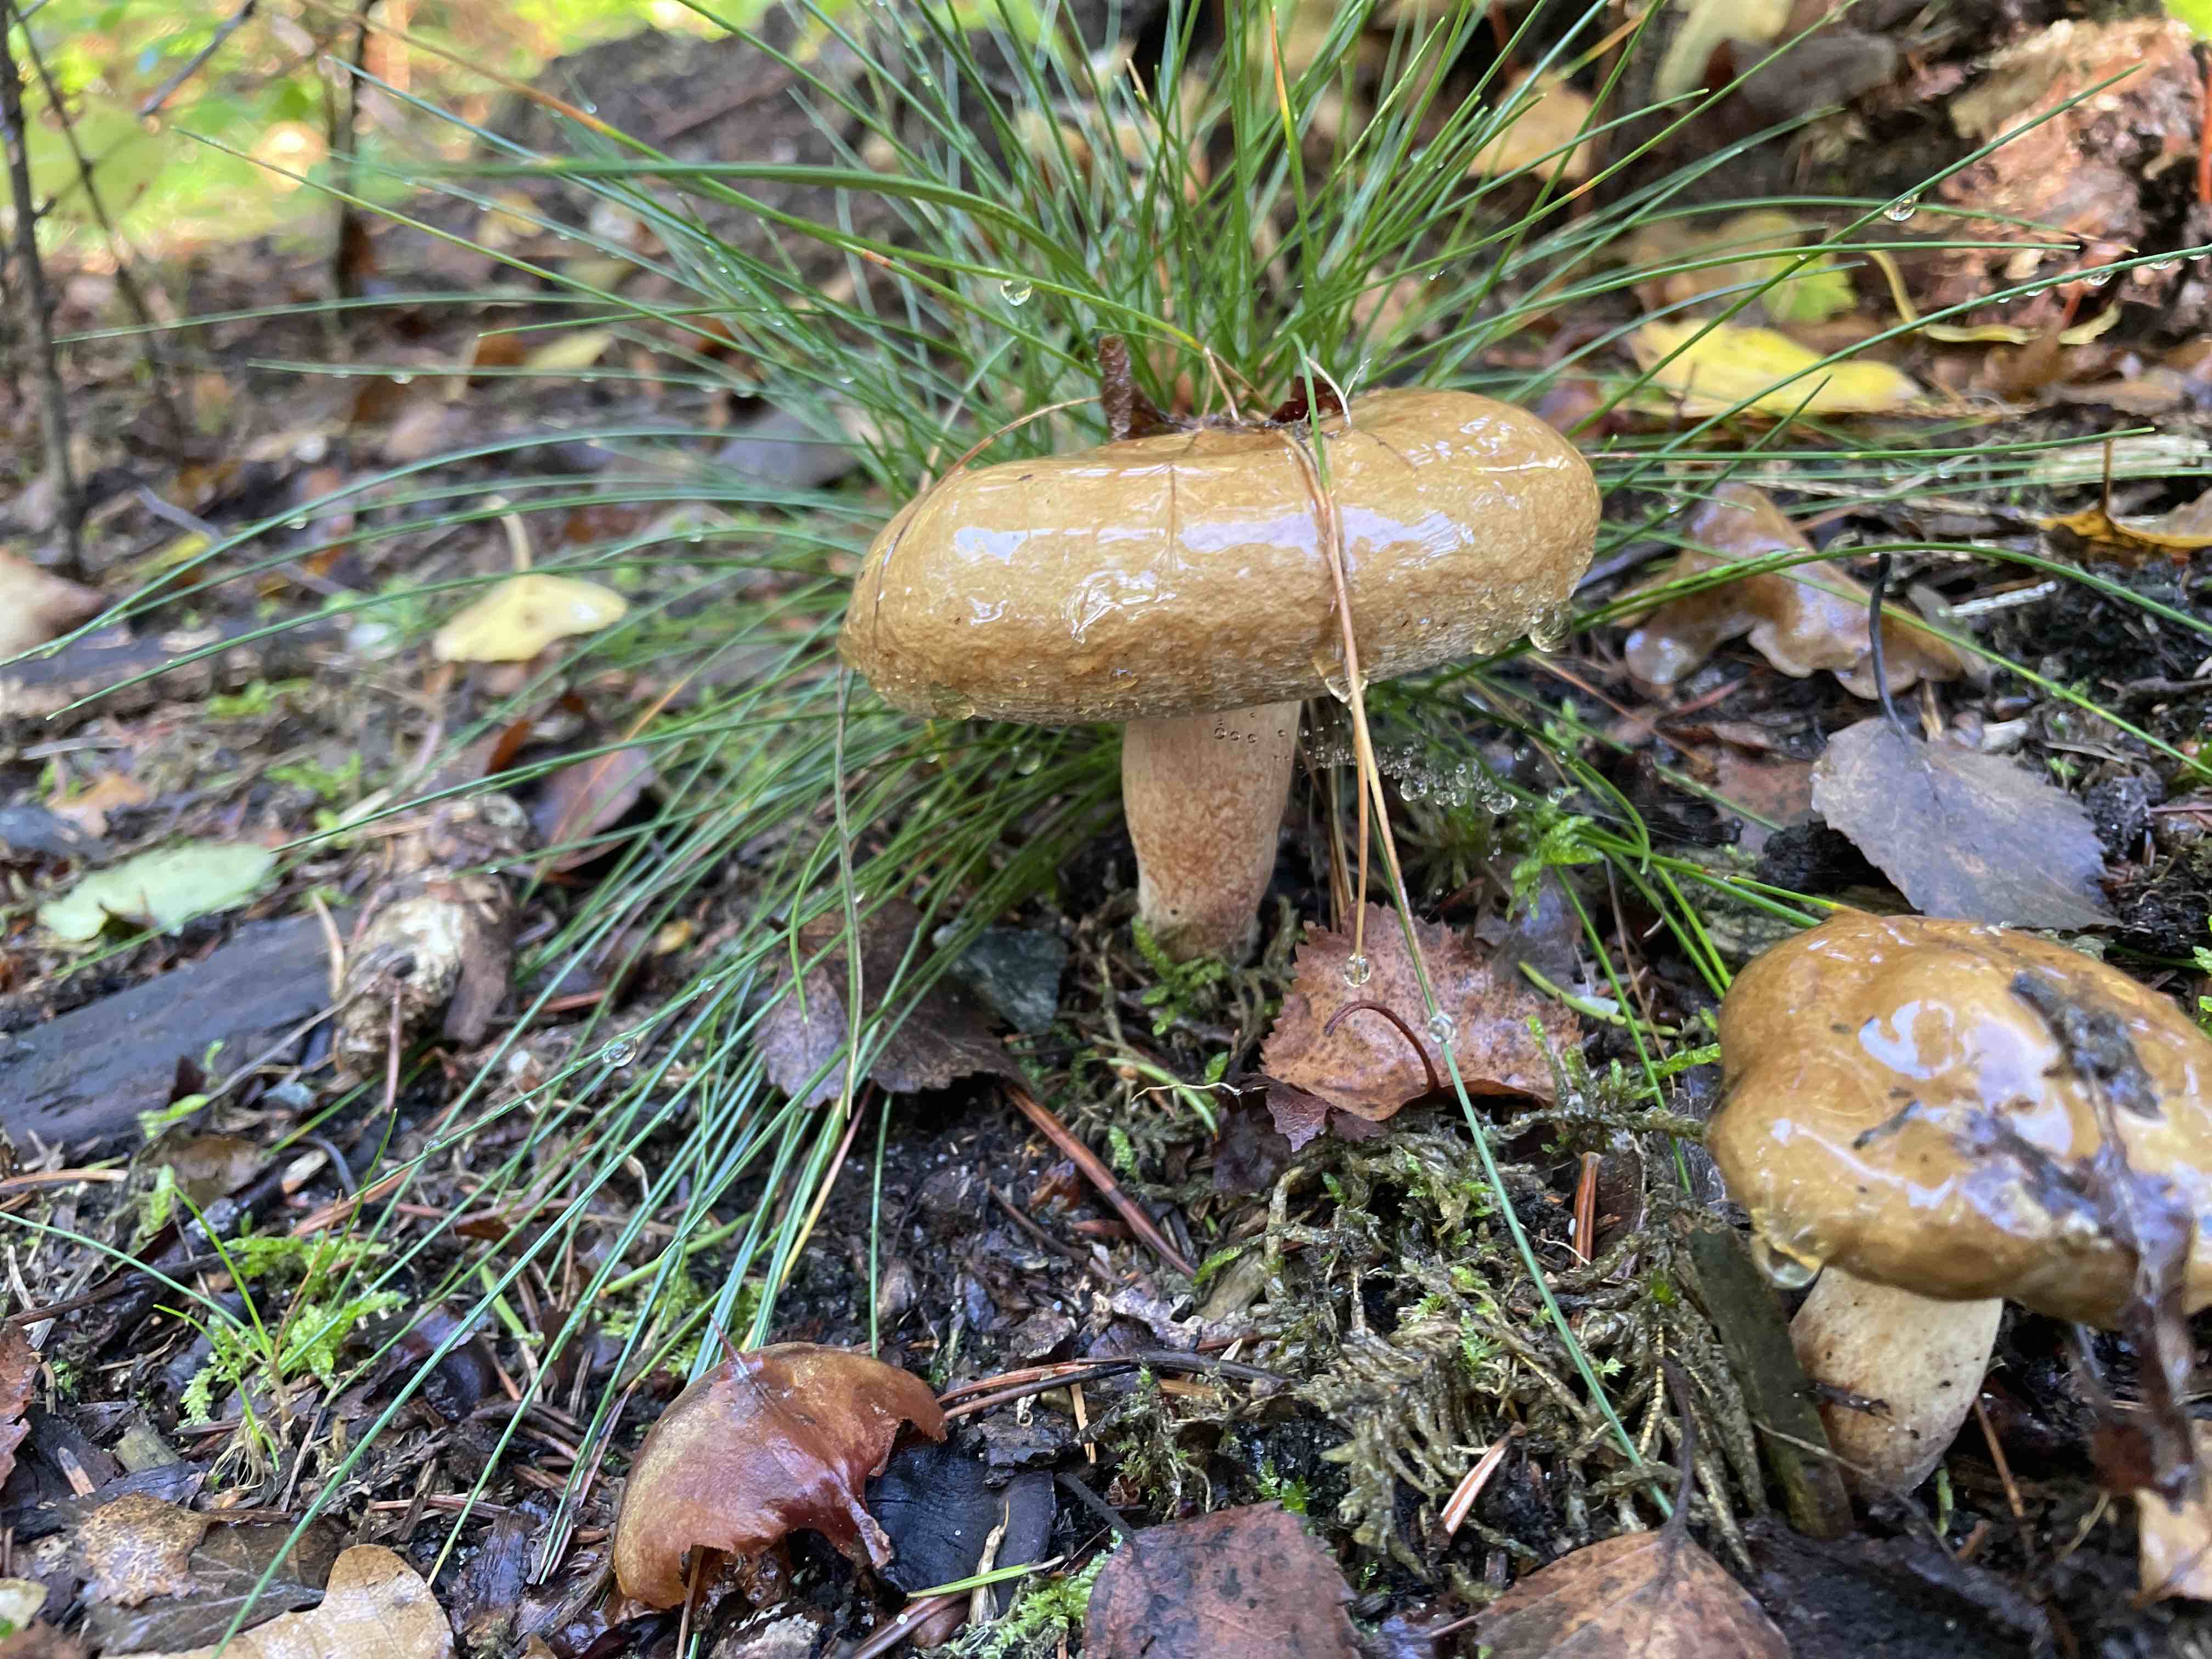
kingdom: Fungi
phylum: Basidiomycota
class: Agaricomycetes
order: Boletales
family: Paxillaceae
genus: Paxillus
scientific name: Paxillus involutus
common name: almindelig netbladhat
